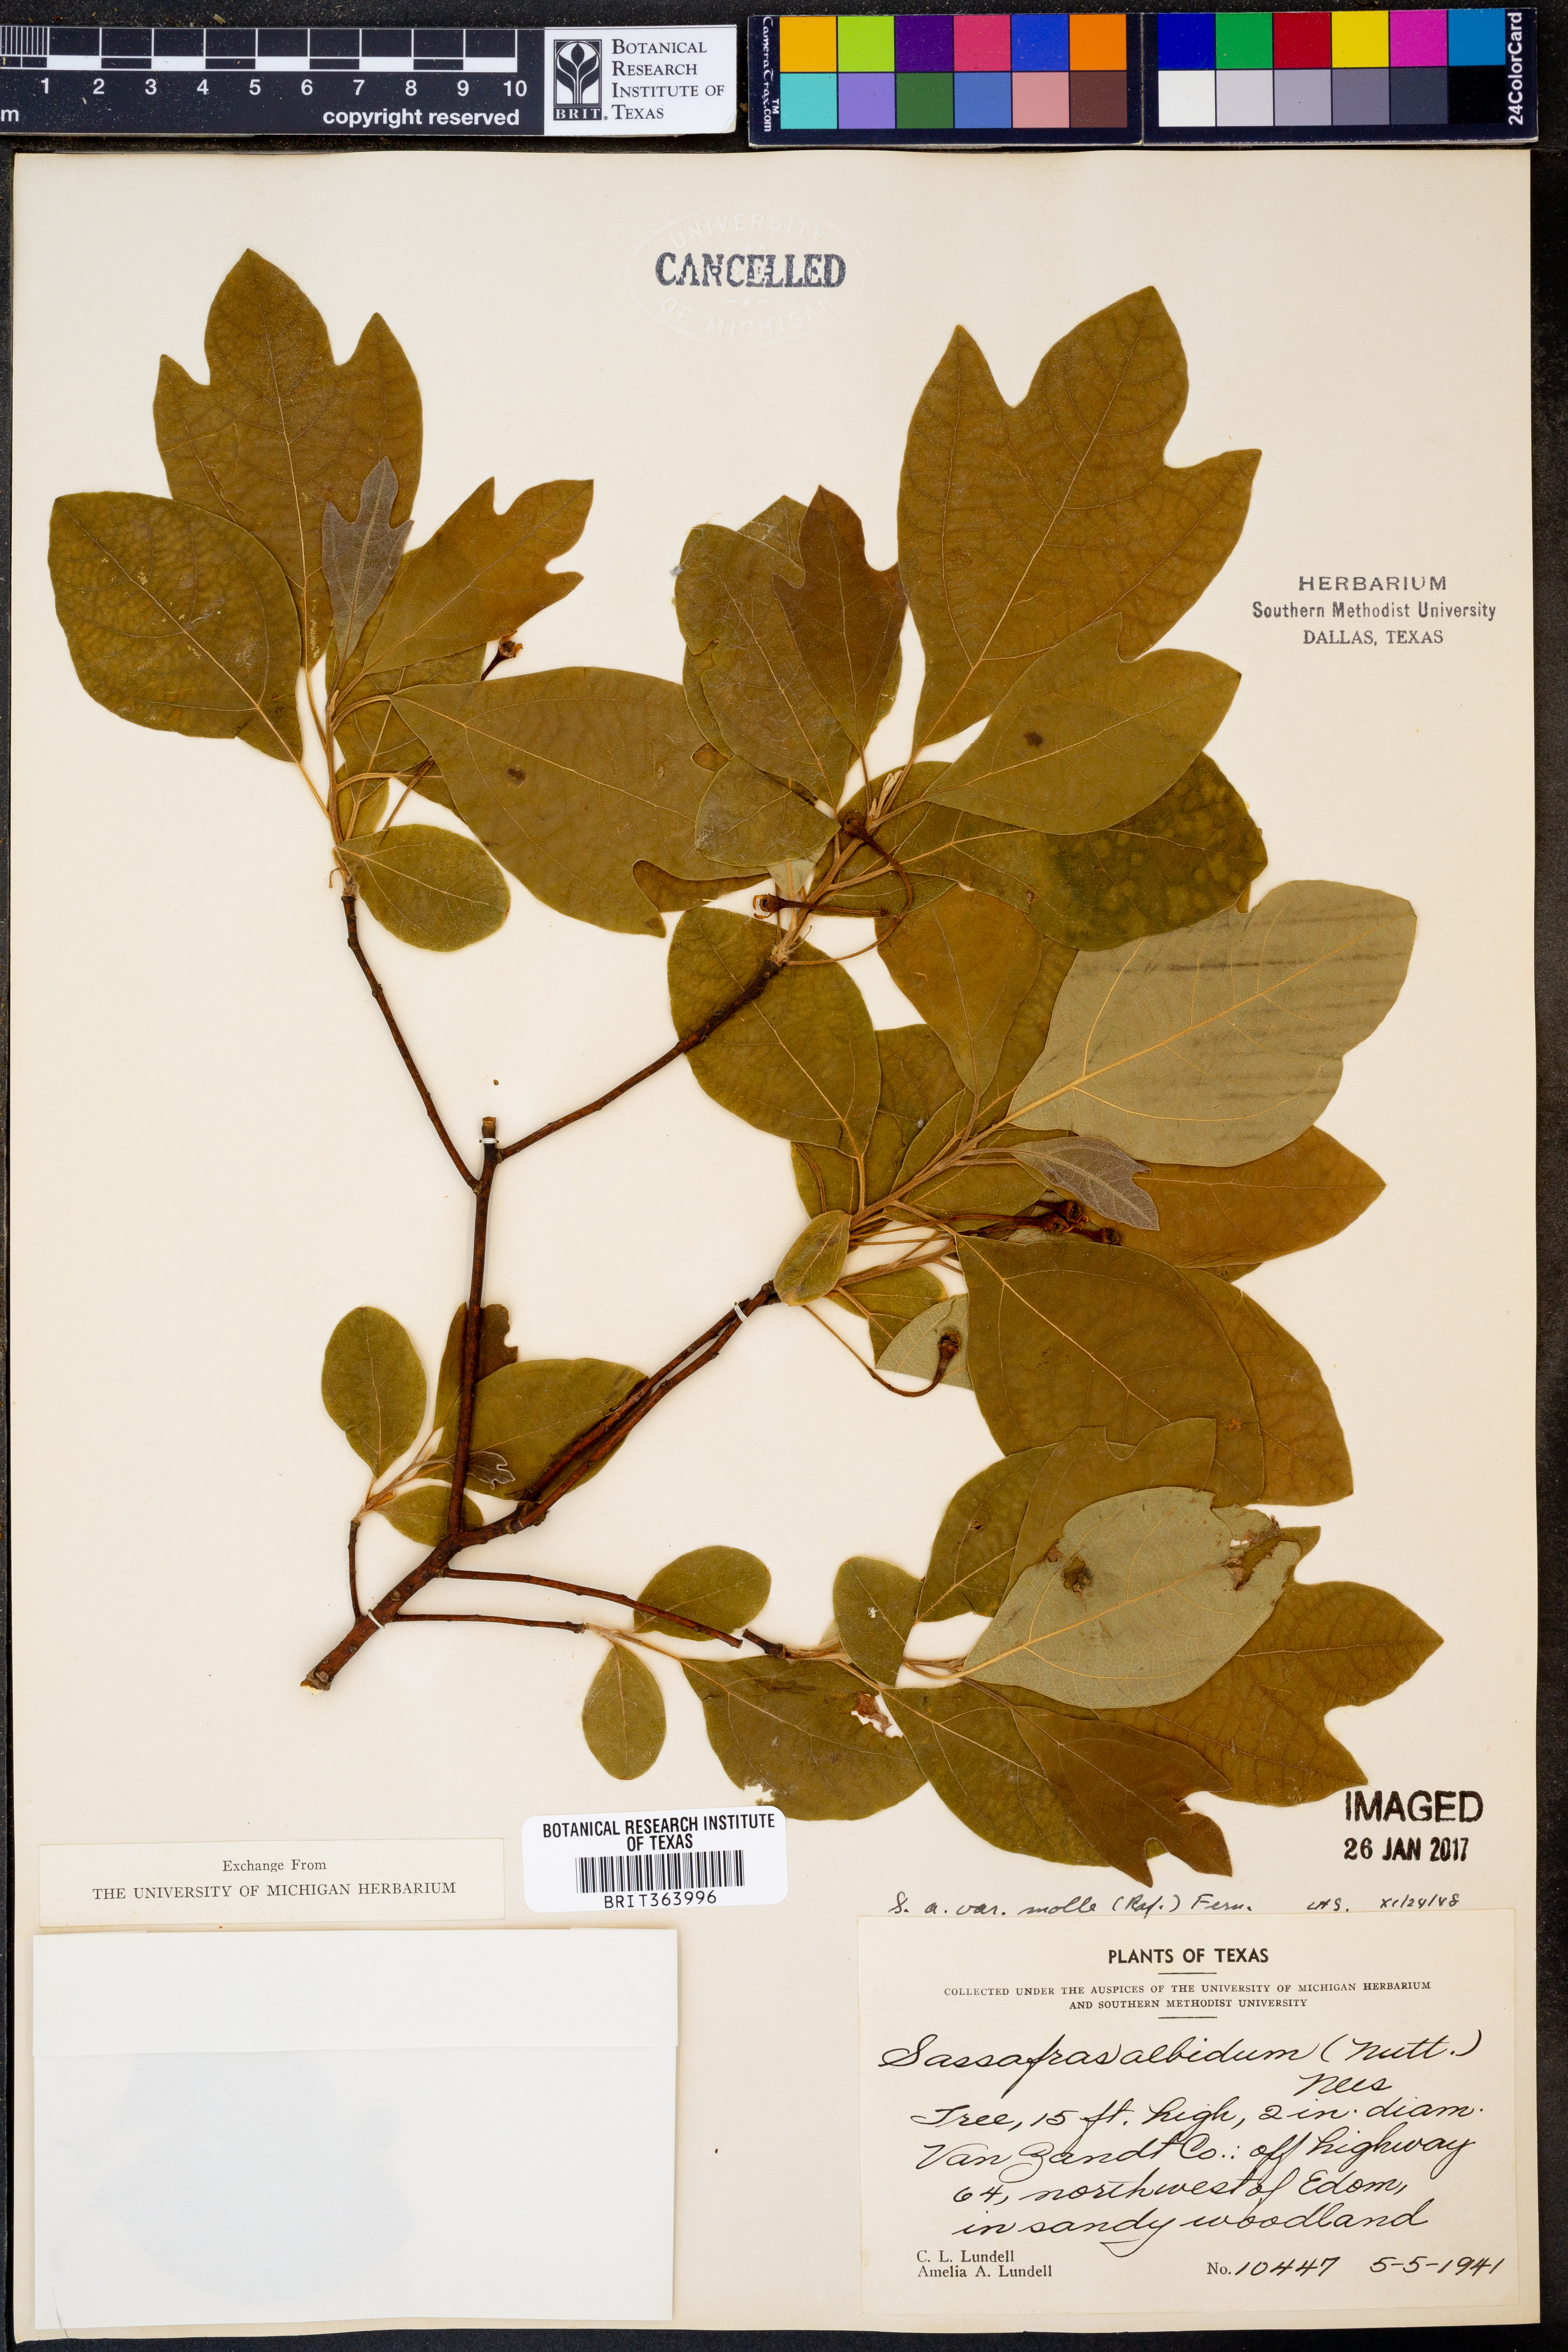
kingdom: Plantae
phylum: Tracheophyta
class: Magnoliopsida
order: Laurales
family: Lauraceae
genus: Sassafras
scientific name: Sassafras albidum
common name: Sassafras
